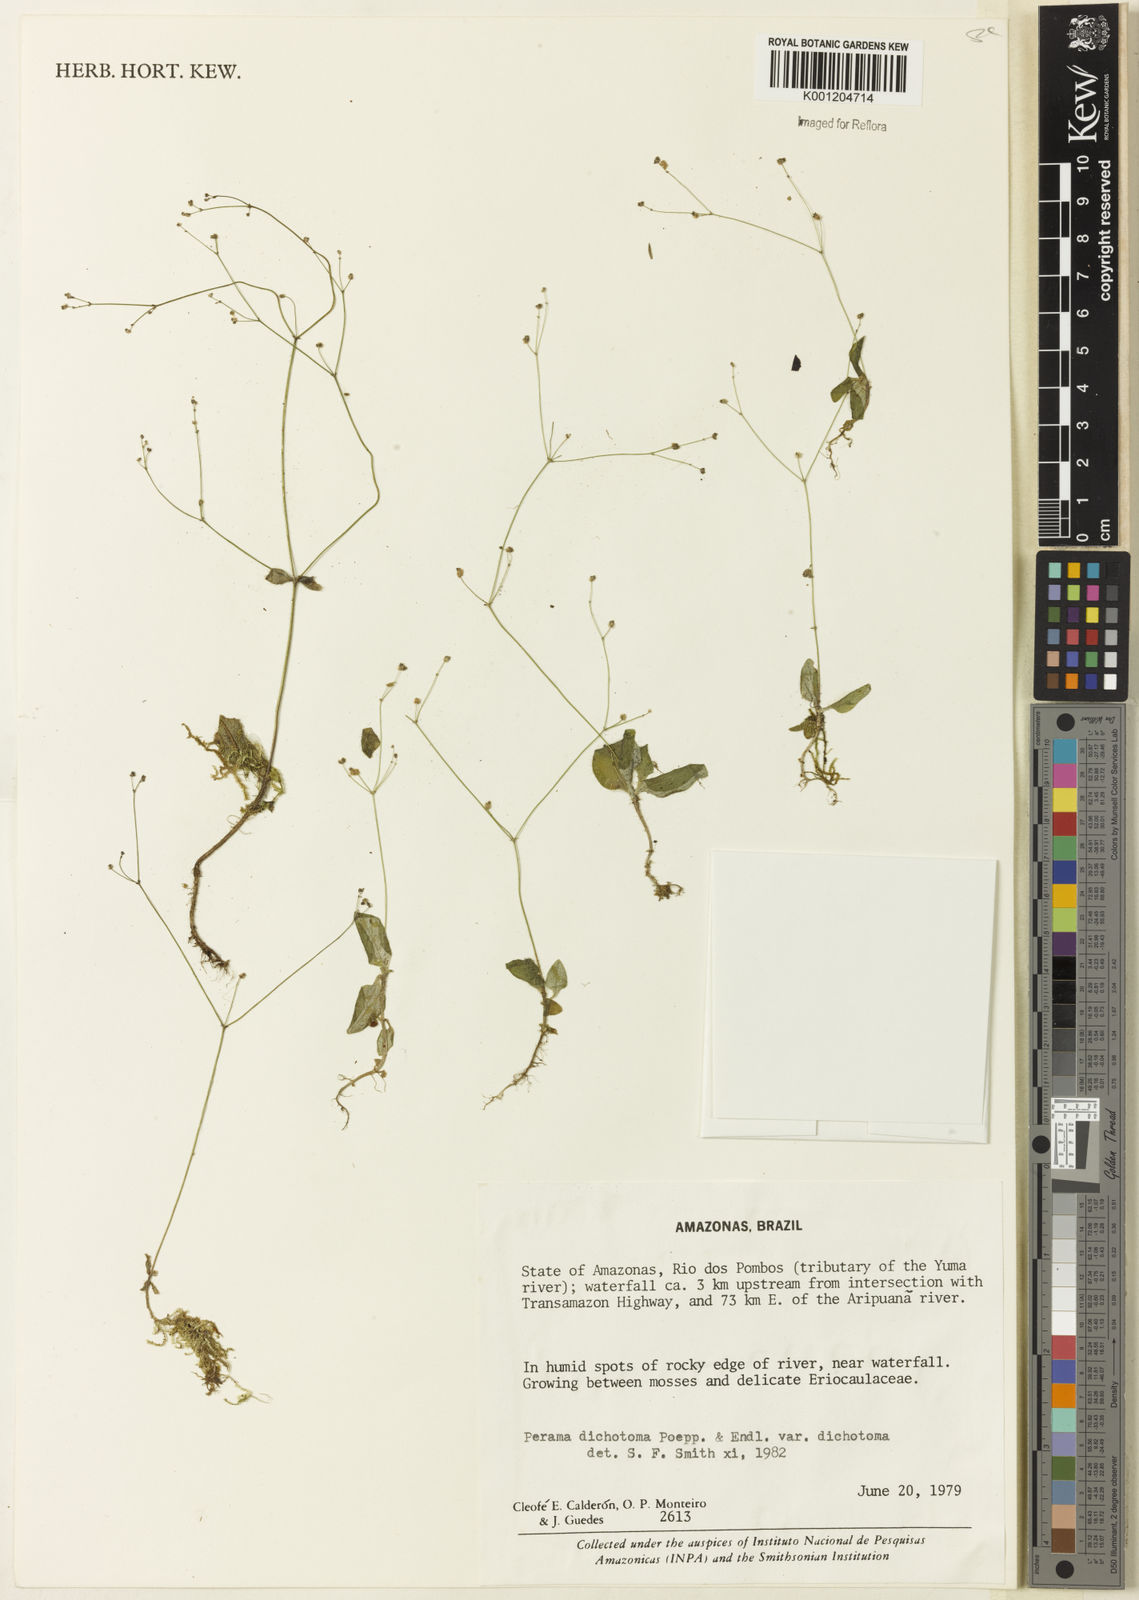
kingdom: Plantae
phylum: Tracheophyta
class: Magnoliopsida
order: Gentianales
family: Rubiaceae
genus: Perama
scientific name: Perama dichotoma
